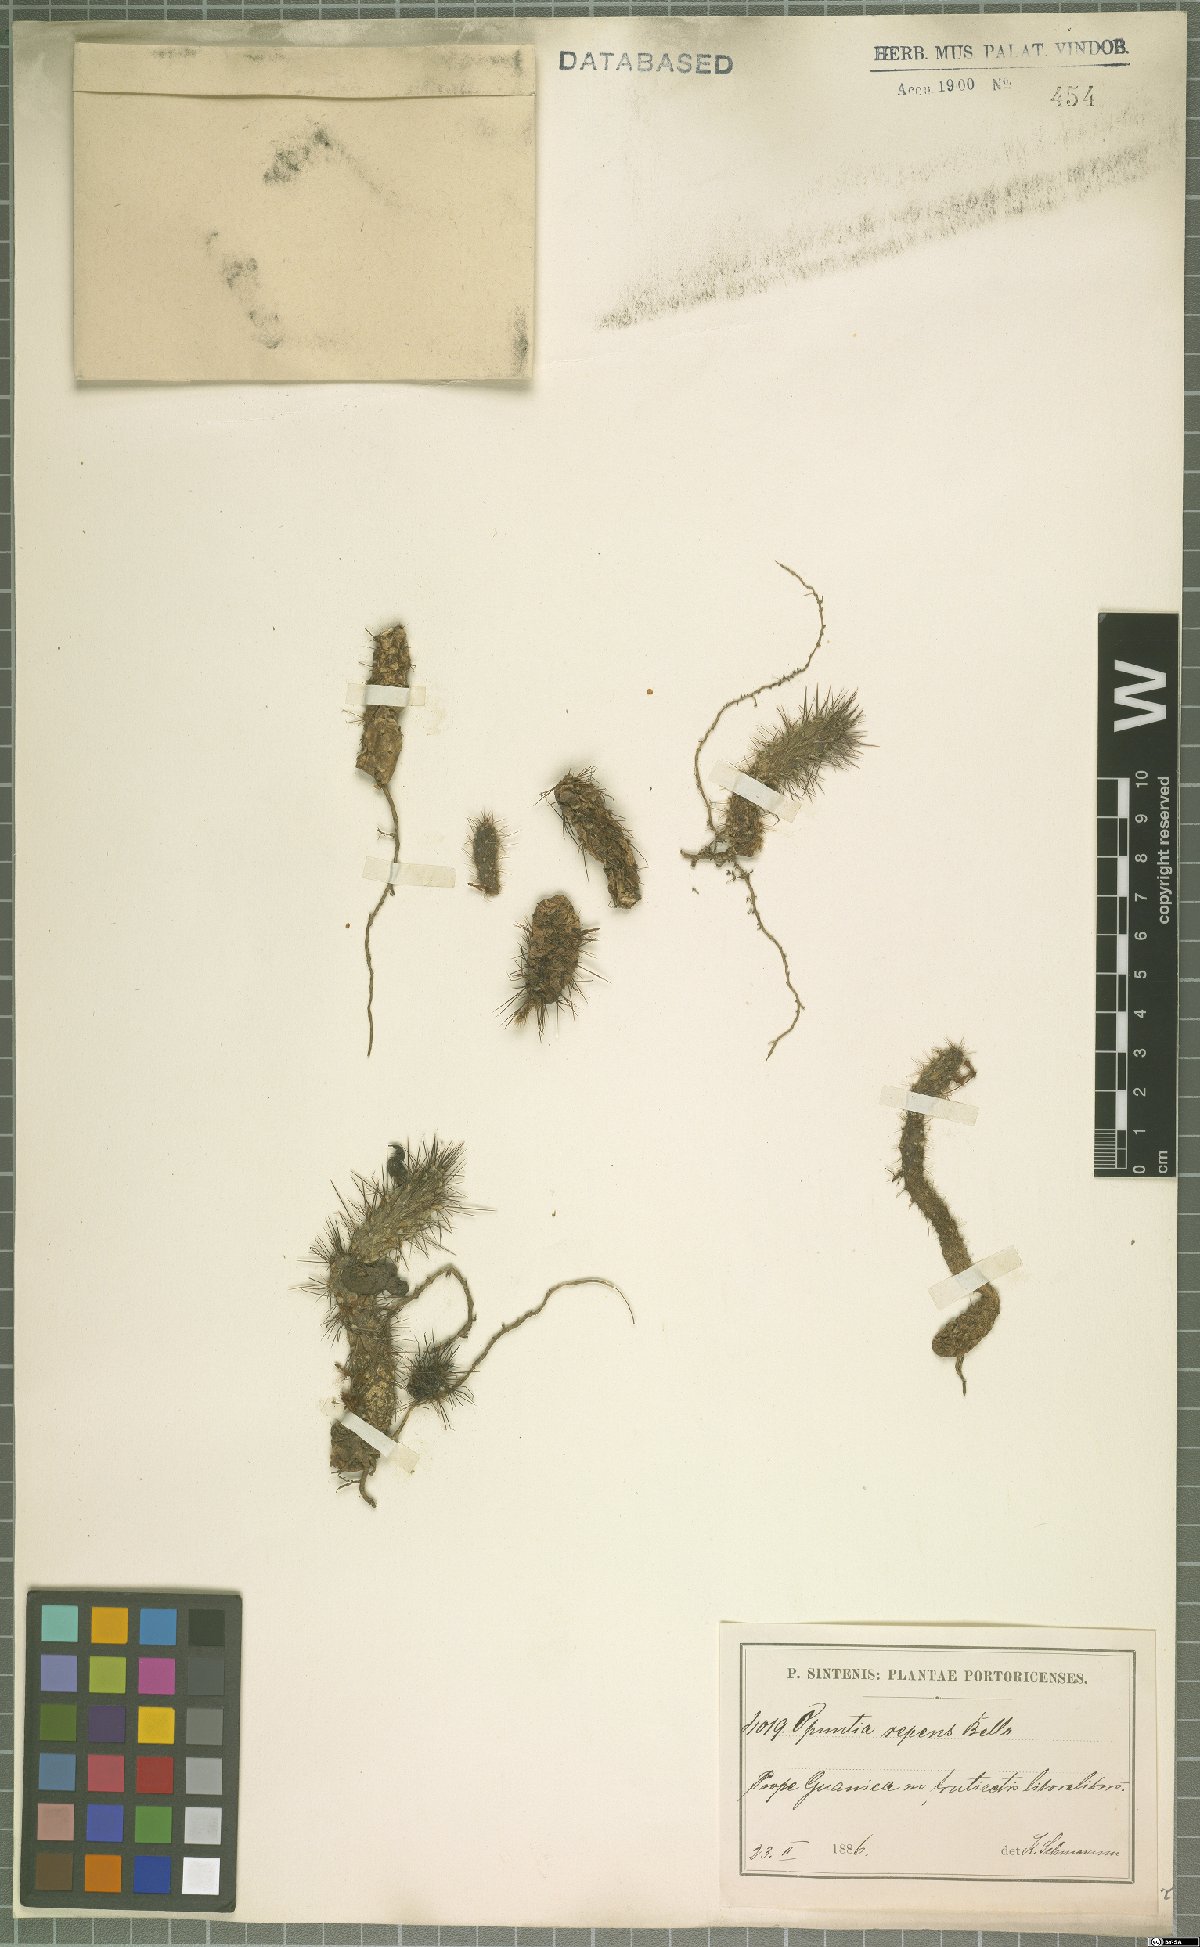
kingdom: Plantae
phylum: Tracheophyta
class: Magnoliopsida
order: Caryophyllales
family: Cactaceae
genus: Opuntia
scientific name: Opuntia repens
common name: Roving pricklypear
